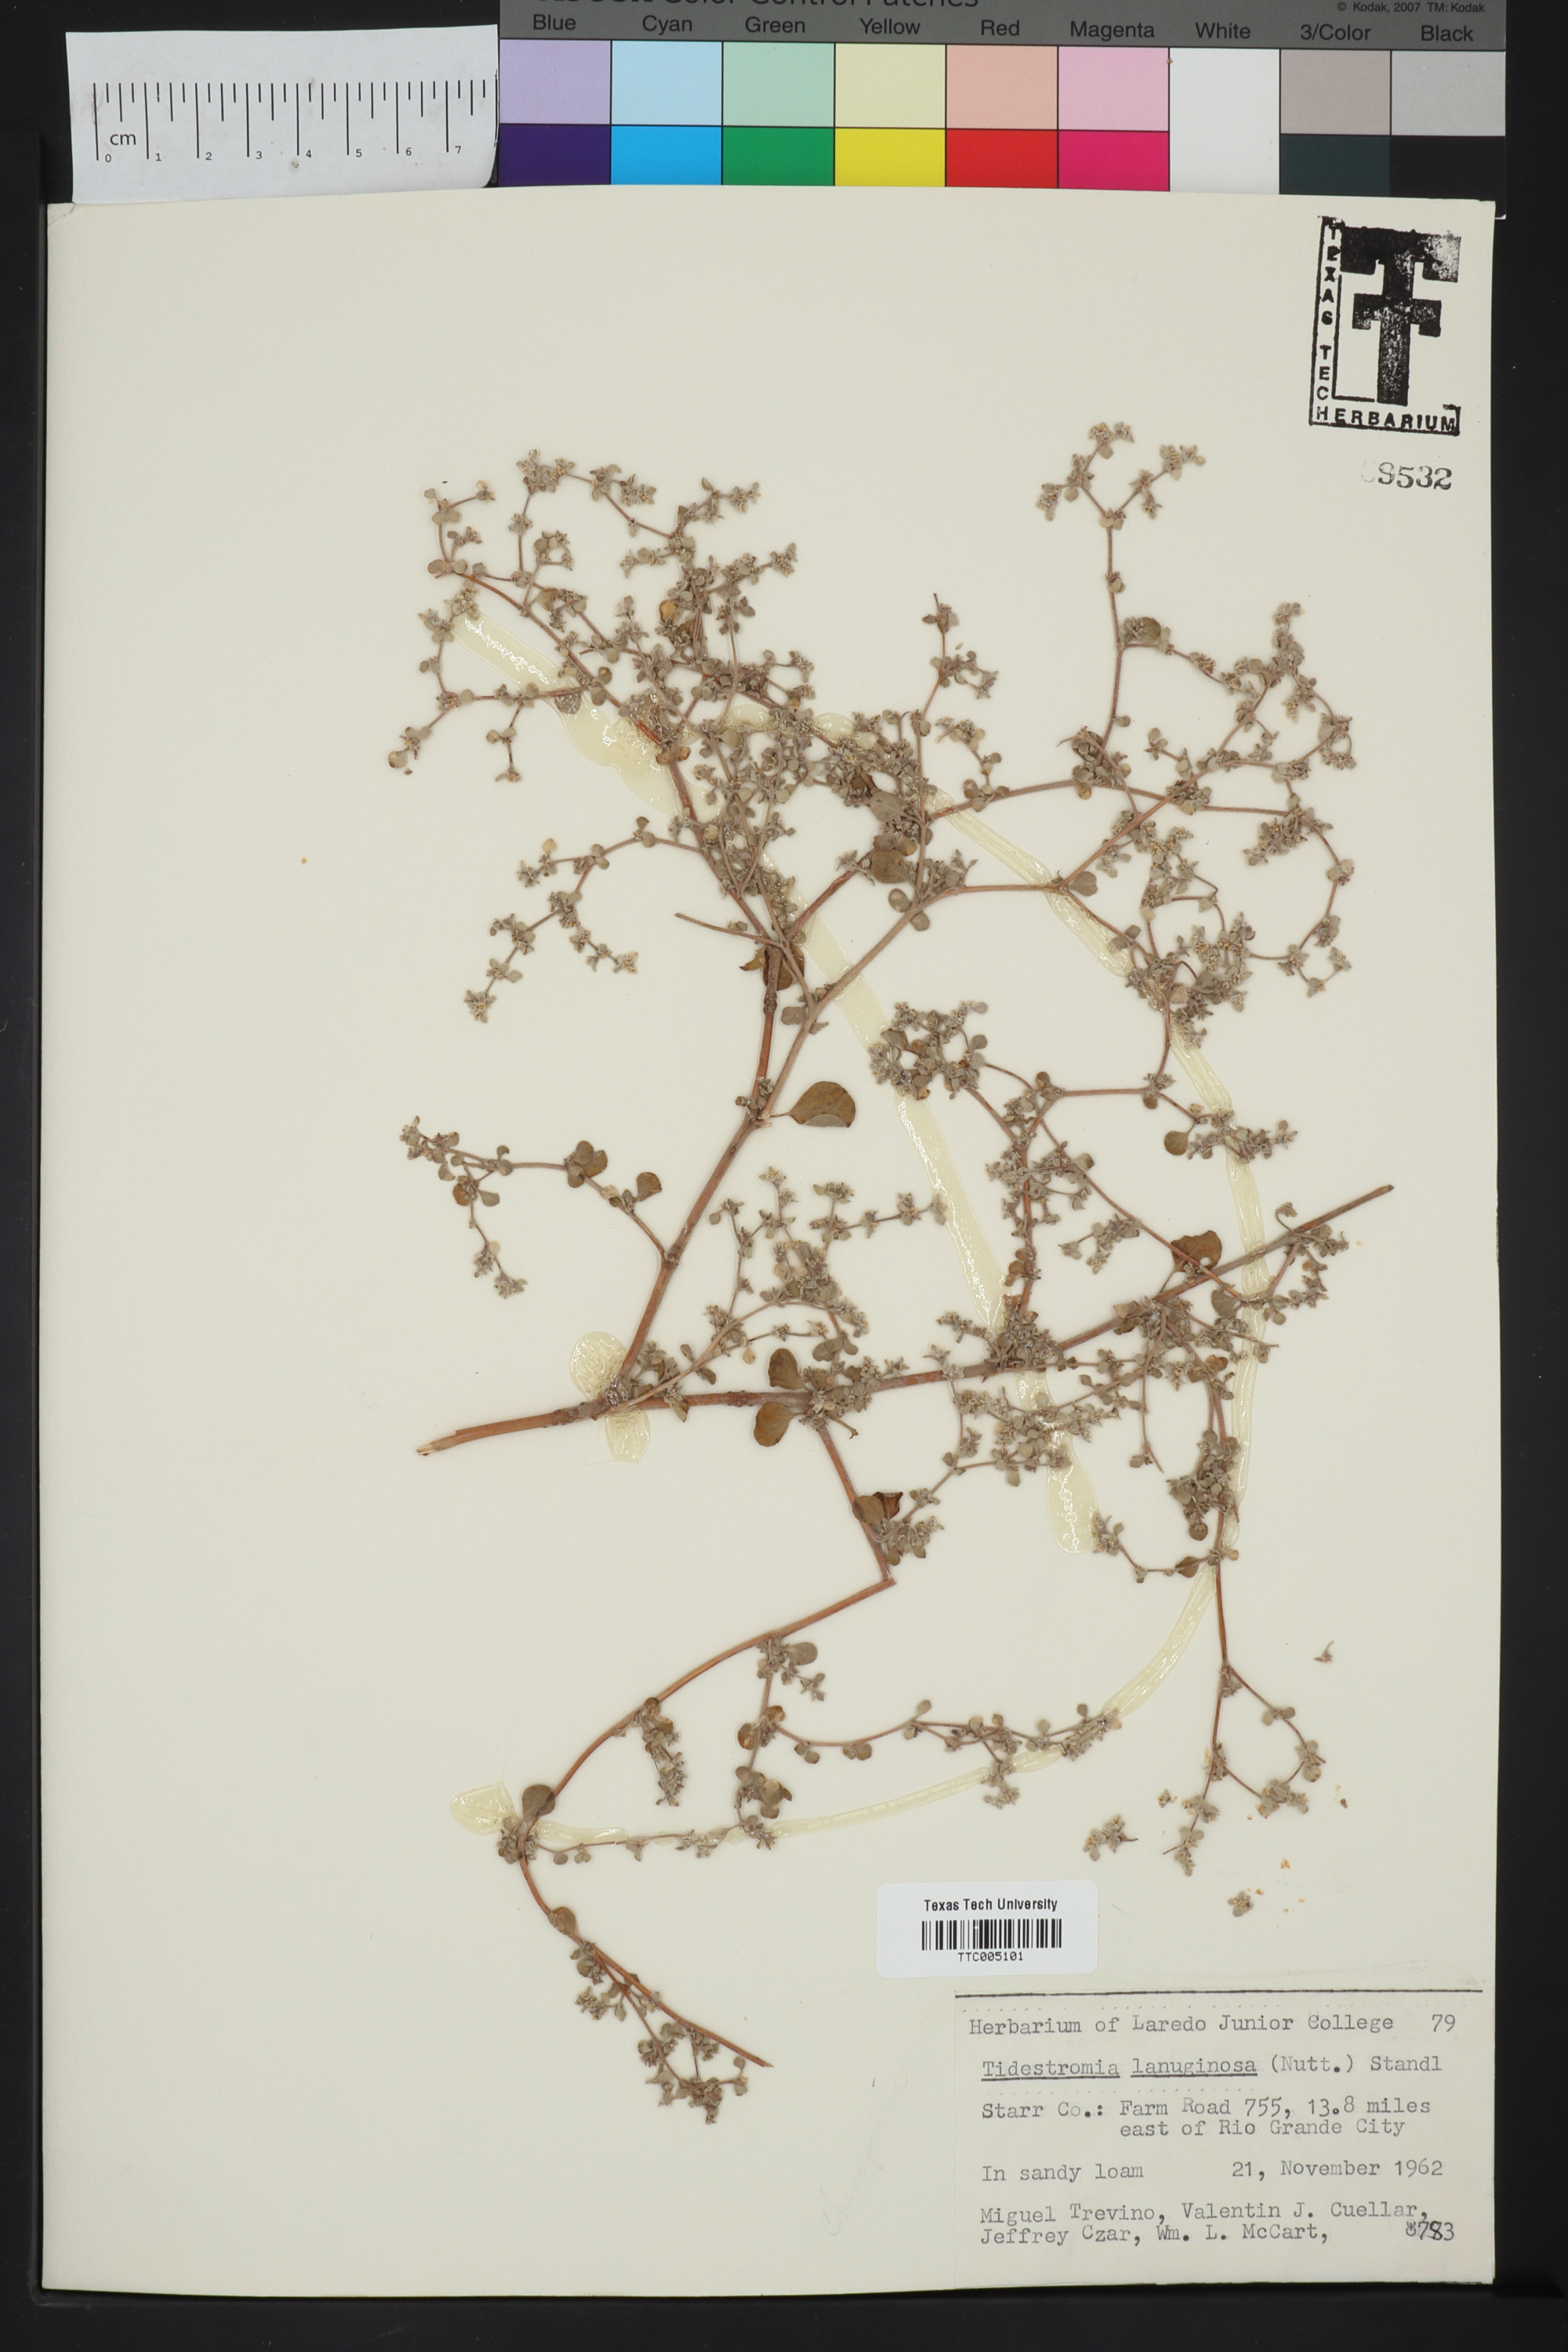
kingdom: Plantae
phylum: Tracheophyta
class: Magnoliopsida
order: Caryophyllales
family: Amaranthaceae
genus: Tidestromia
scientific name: Tidestromia lanuginosa
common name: Woolly tidestromia
